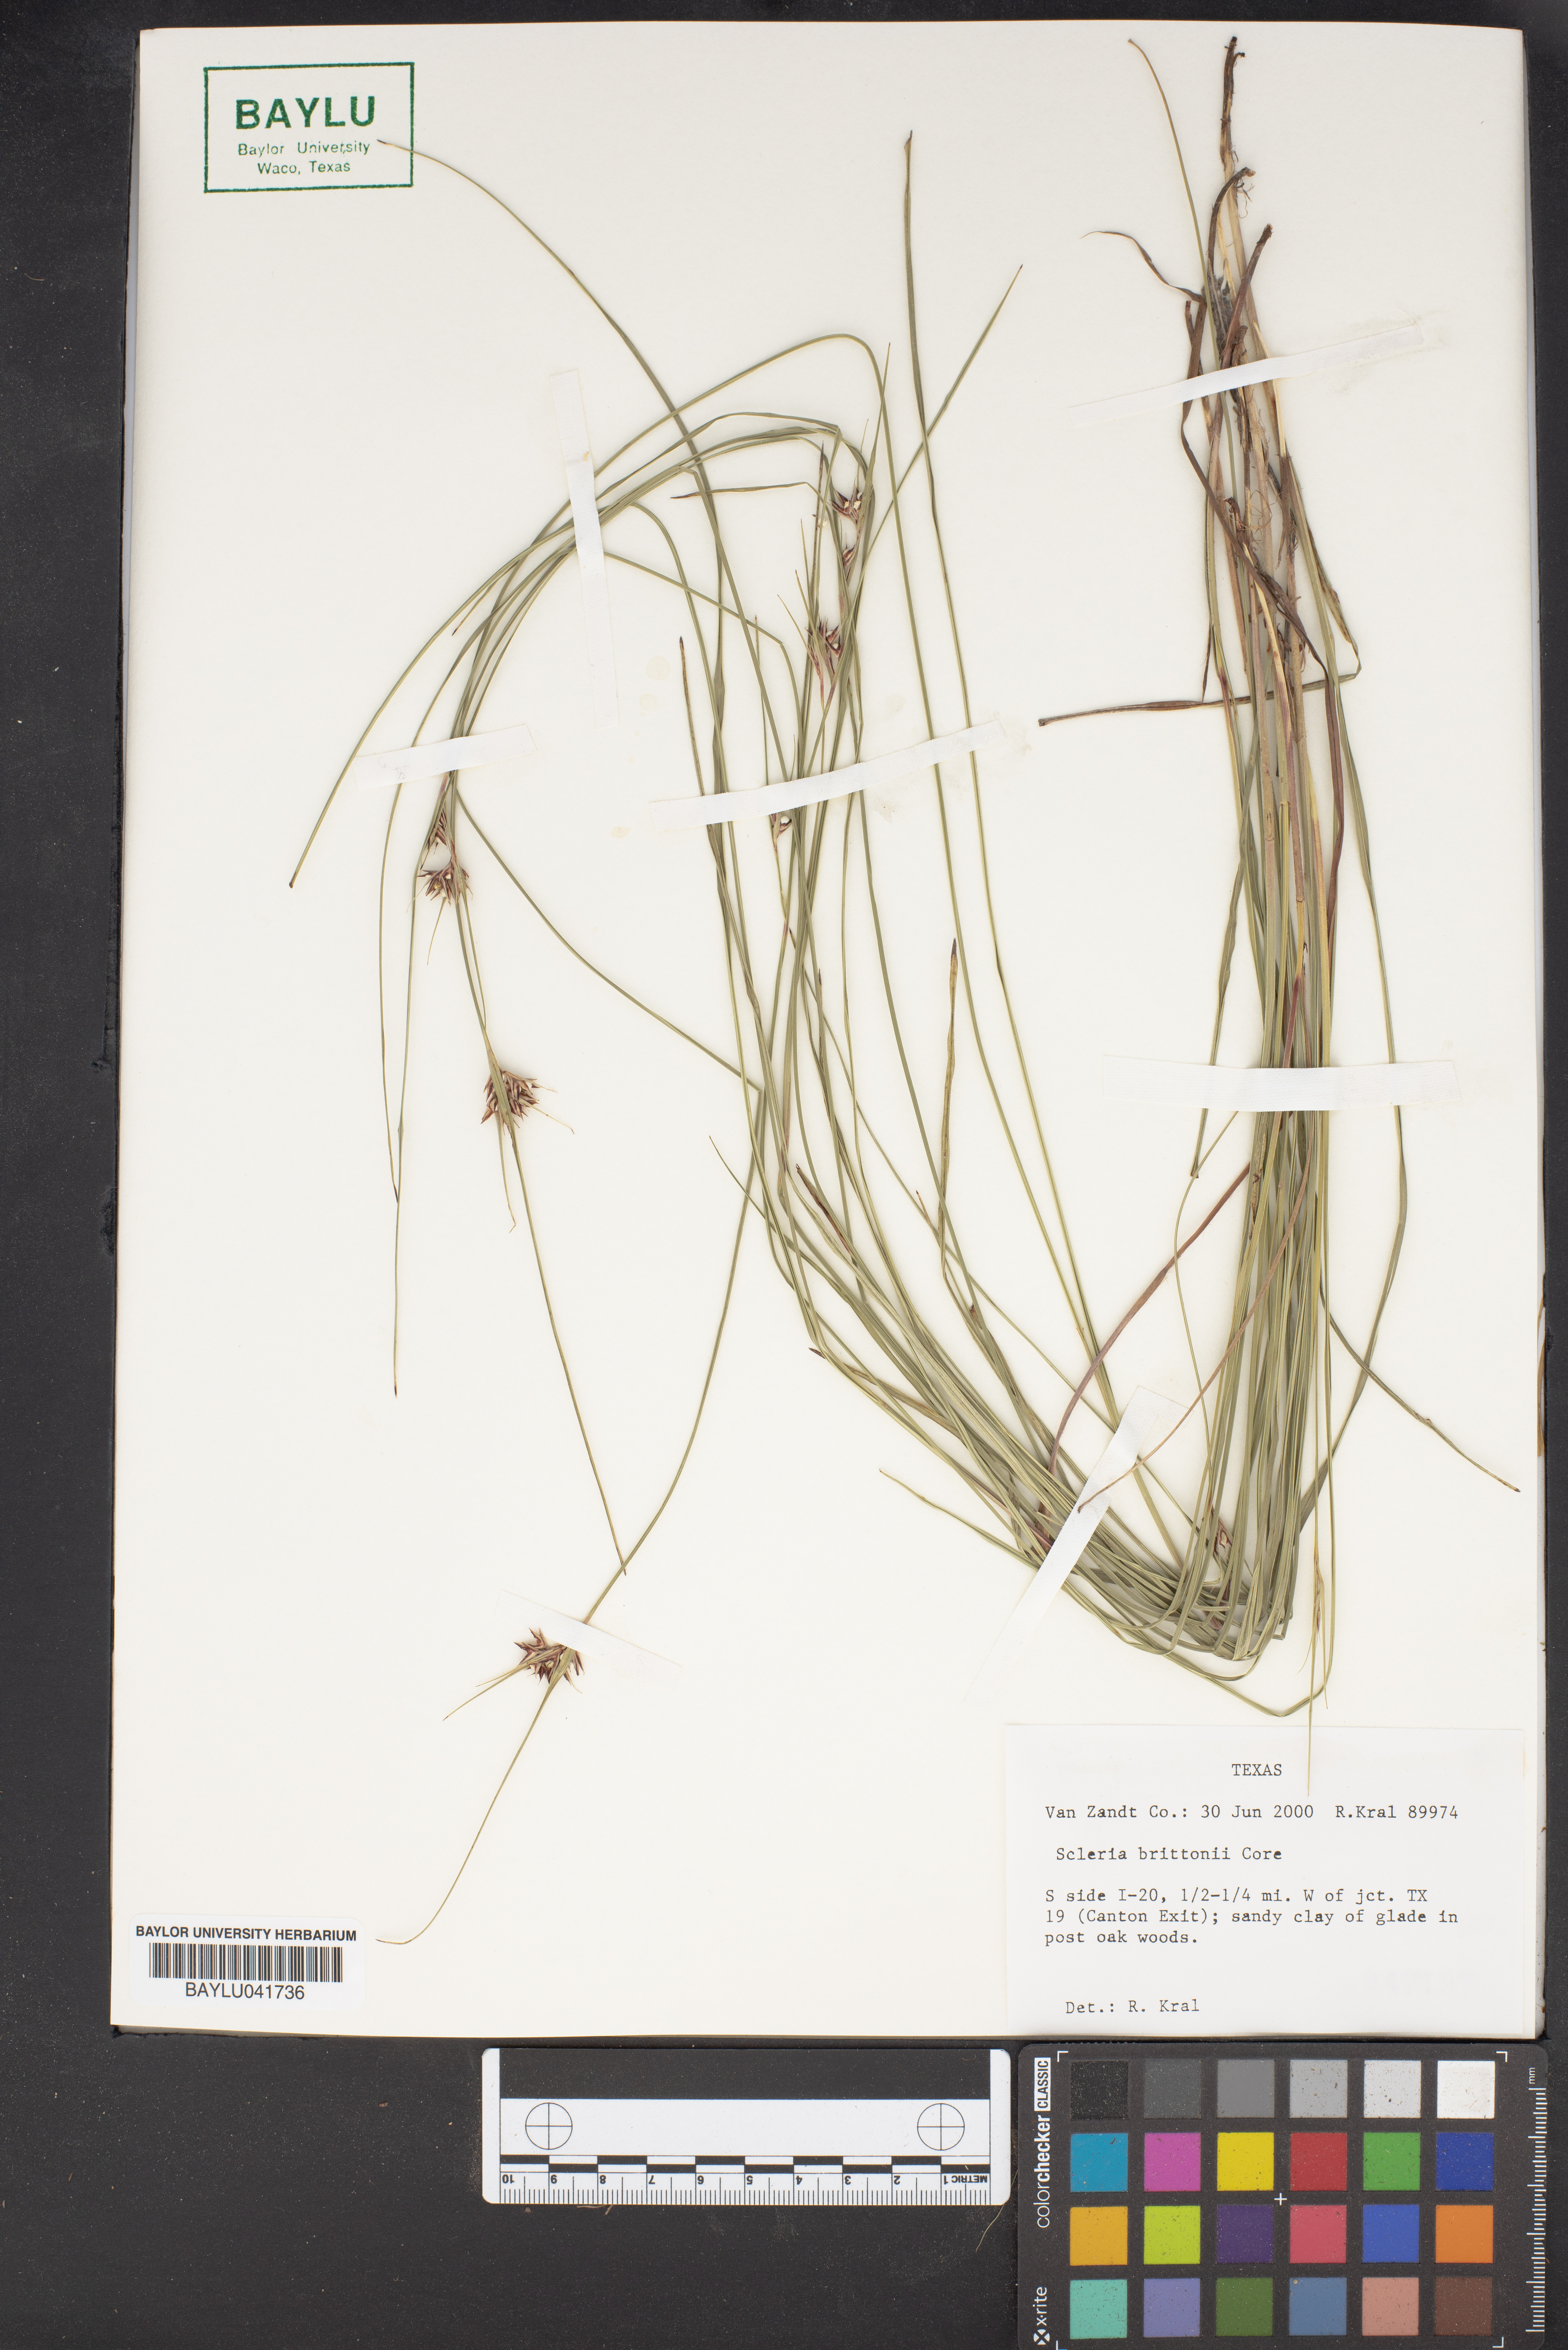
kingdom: Plantae
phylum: Tracheophyta
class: Liliopsida
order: Poales
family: Cyperaceae
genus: Scleria
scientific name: Scleria ciliata
